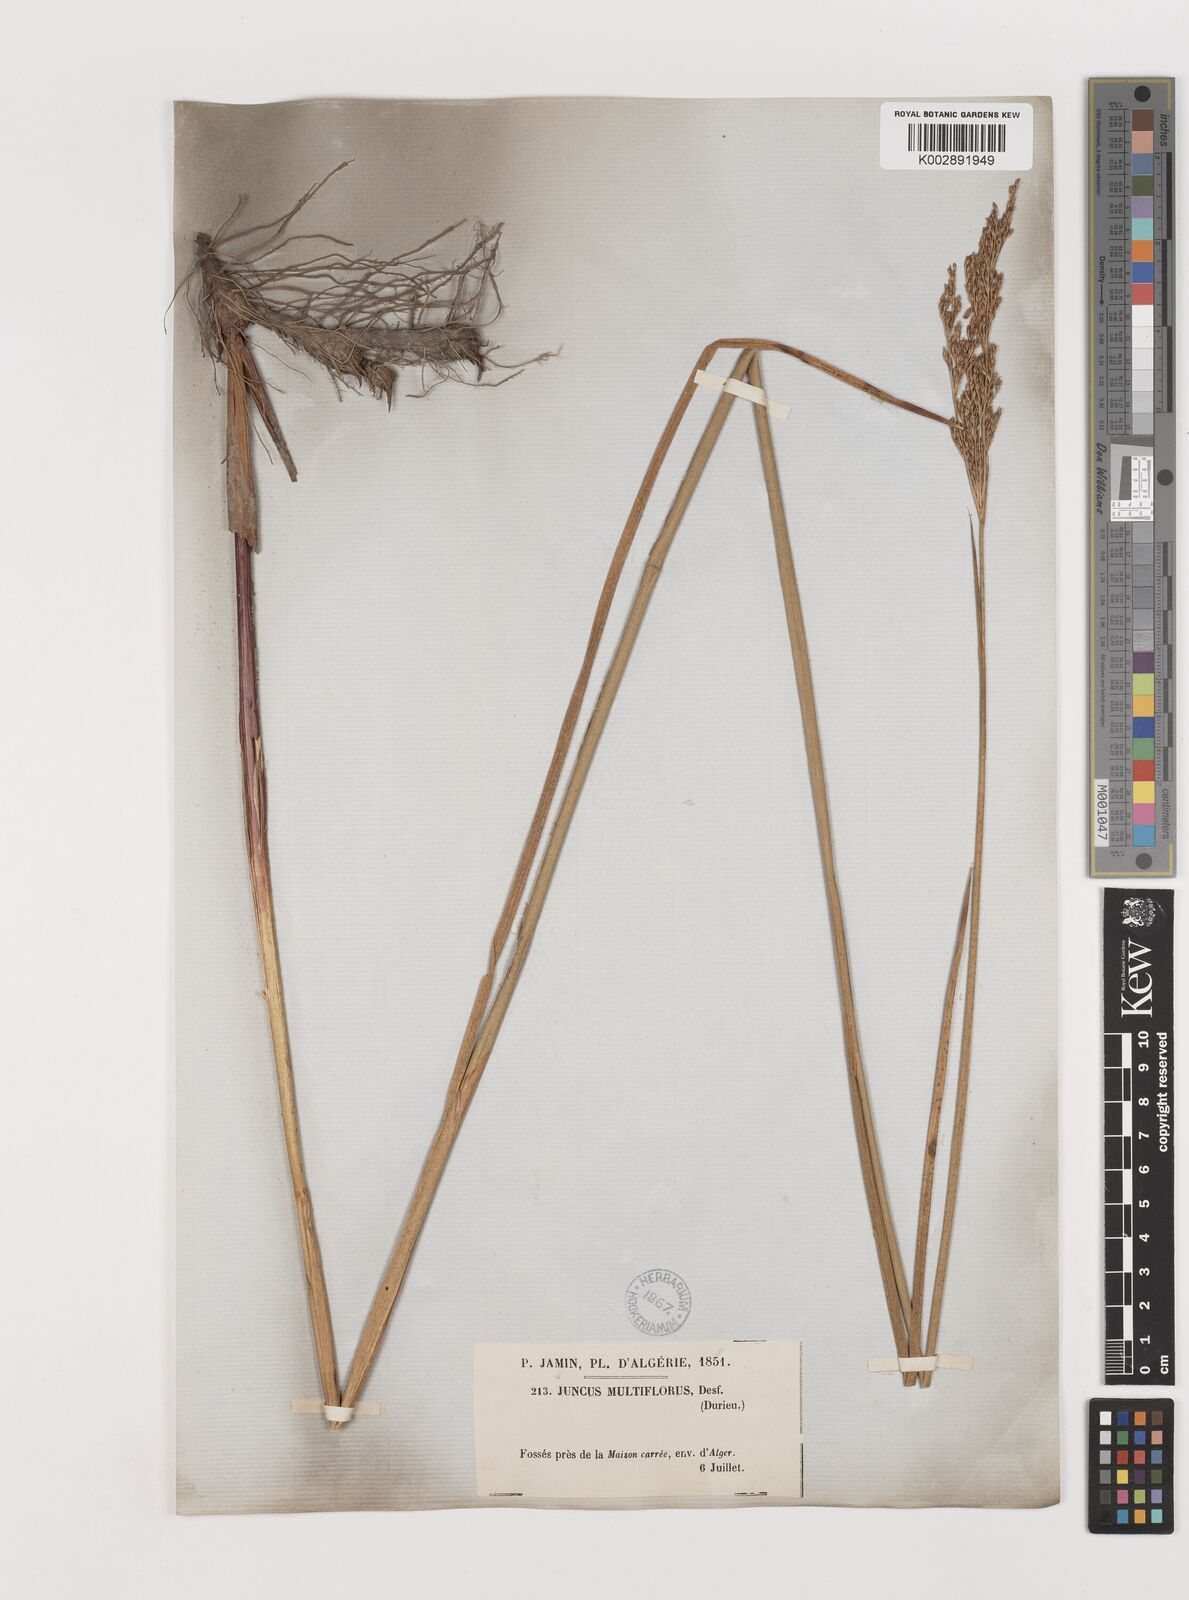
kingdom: Plantae
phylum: Tracheophyta
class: Liliopsida
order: Poales
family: Juncaceae
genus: Juncus
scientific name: Juncus subulatus
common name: Somerset rush
